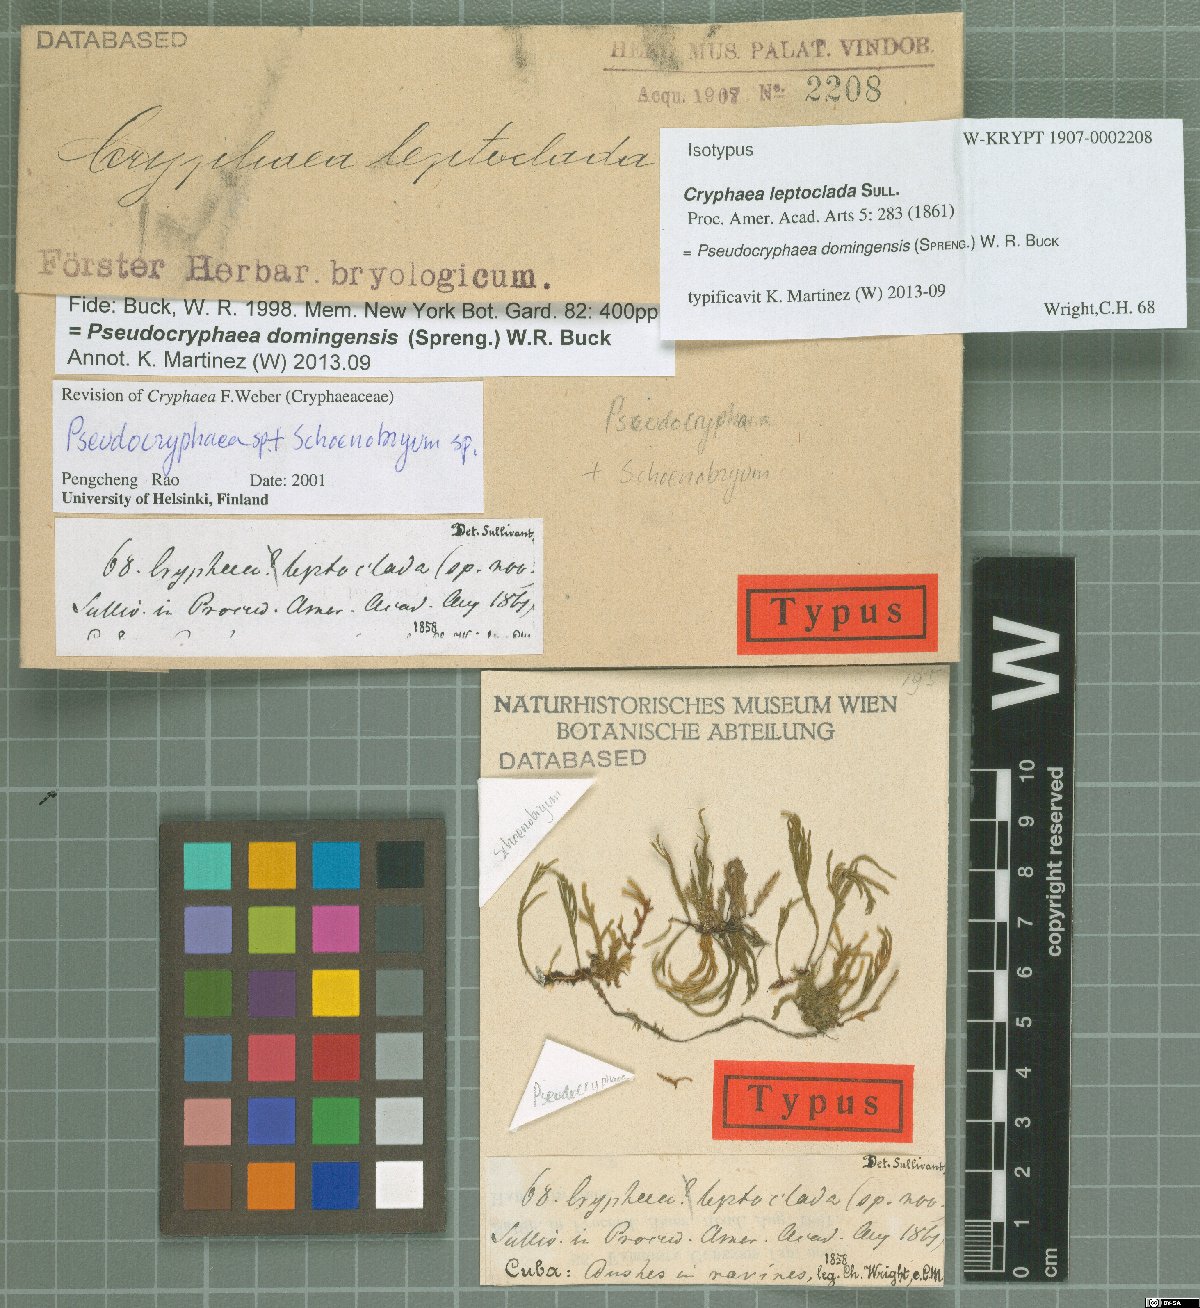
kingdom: Plantae
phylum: Bryophyta
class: Bryopsida
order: Hypnales
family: Rutenbergiaceae
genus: Pseudocryphaea
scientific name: Pseudocryphaea domingensis
